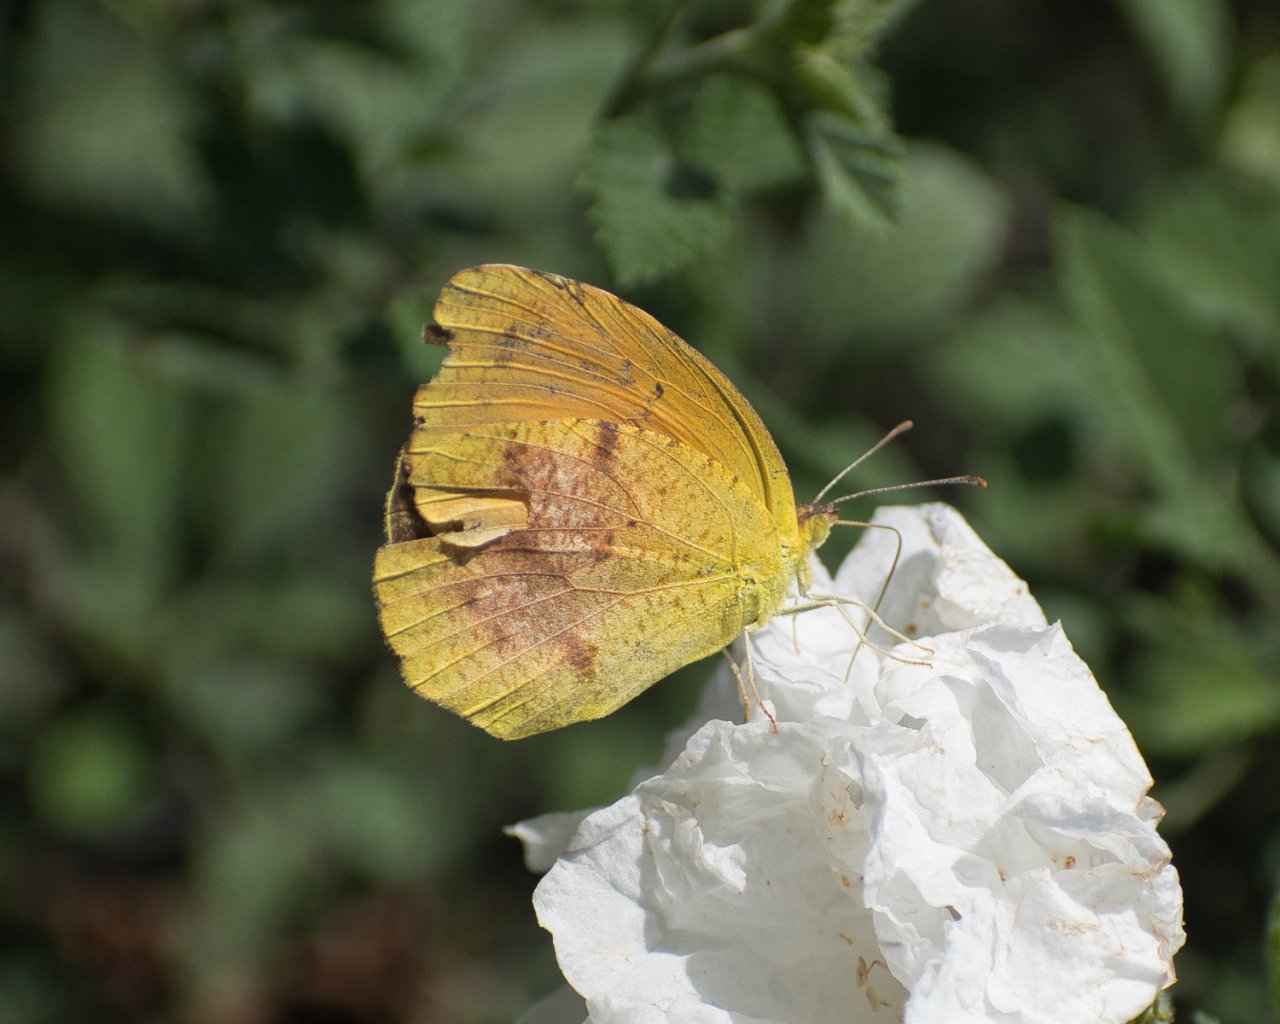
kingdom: Animalia
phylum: Arthropoda
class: Insecta
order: Lepidoptera
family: Pieridae
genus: Abaeis
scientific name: Abaeis nicippe
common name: Sleepy Orange
